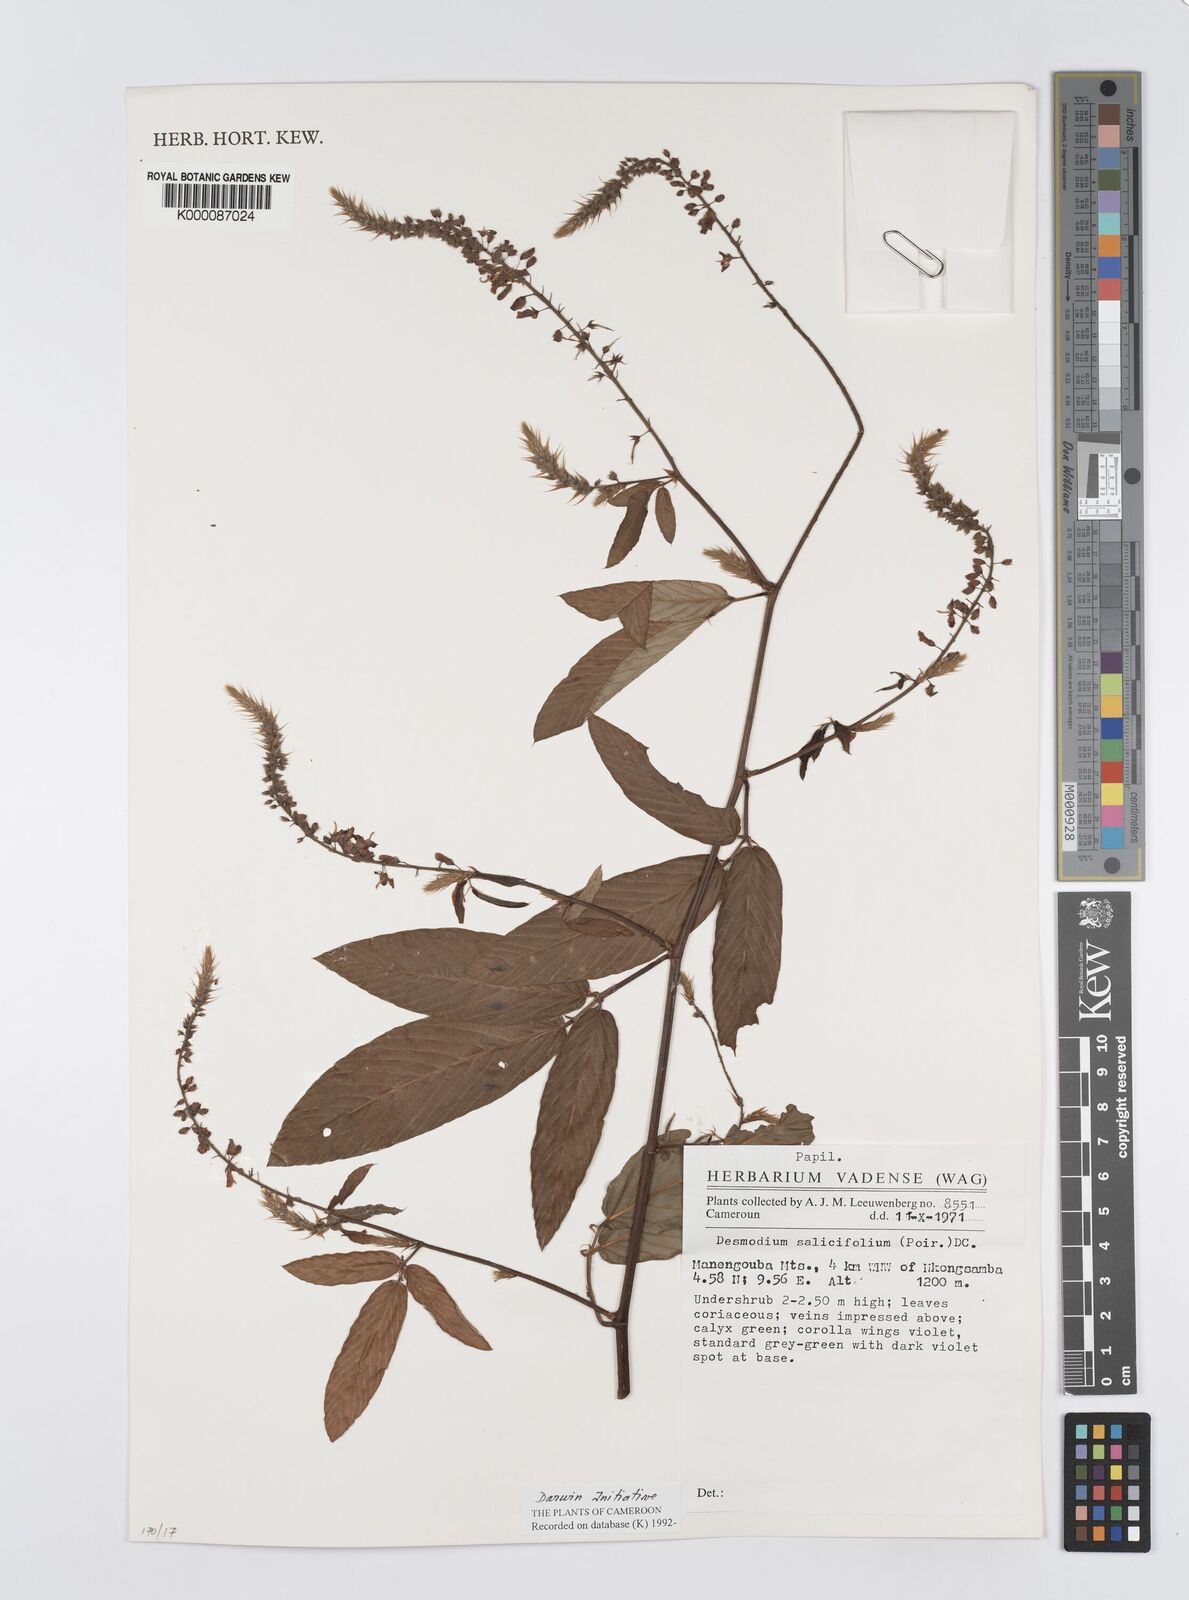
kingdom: Plantae
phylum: Tracheophyta
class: Magnoliopsida
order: Fabales
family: Fabaceae
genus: Pleurolobus
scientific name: Pleurolobus salicifolius
